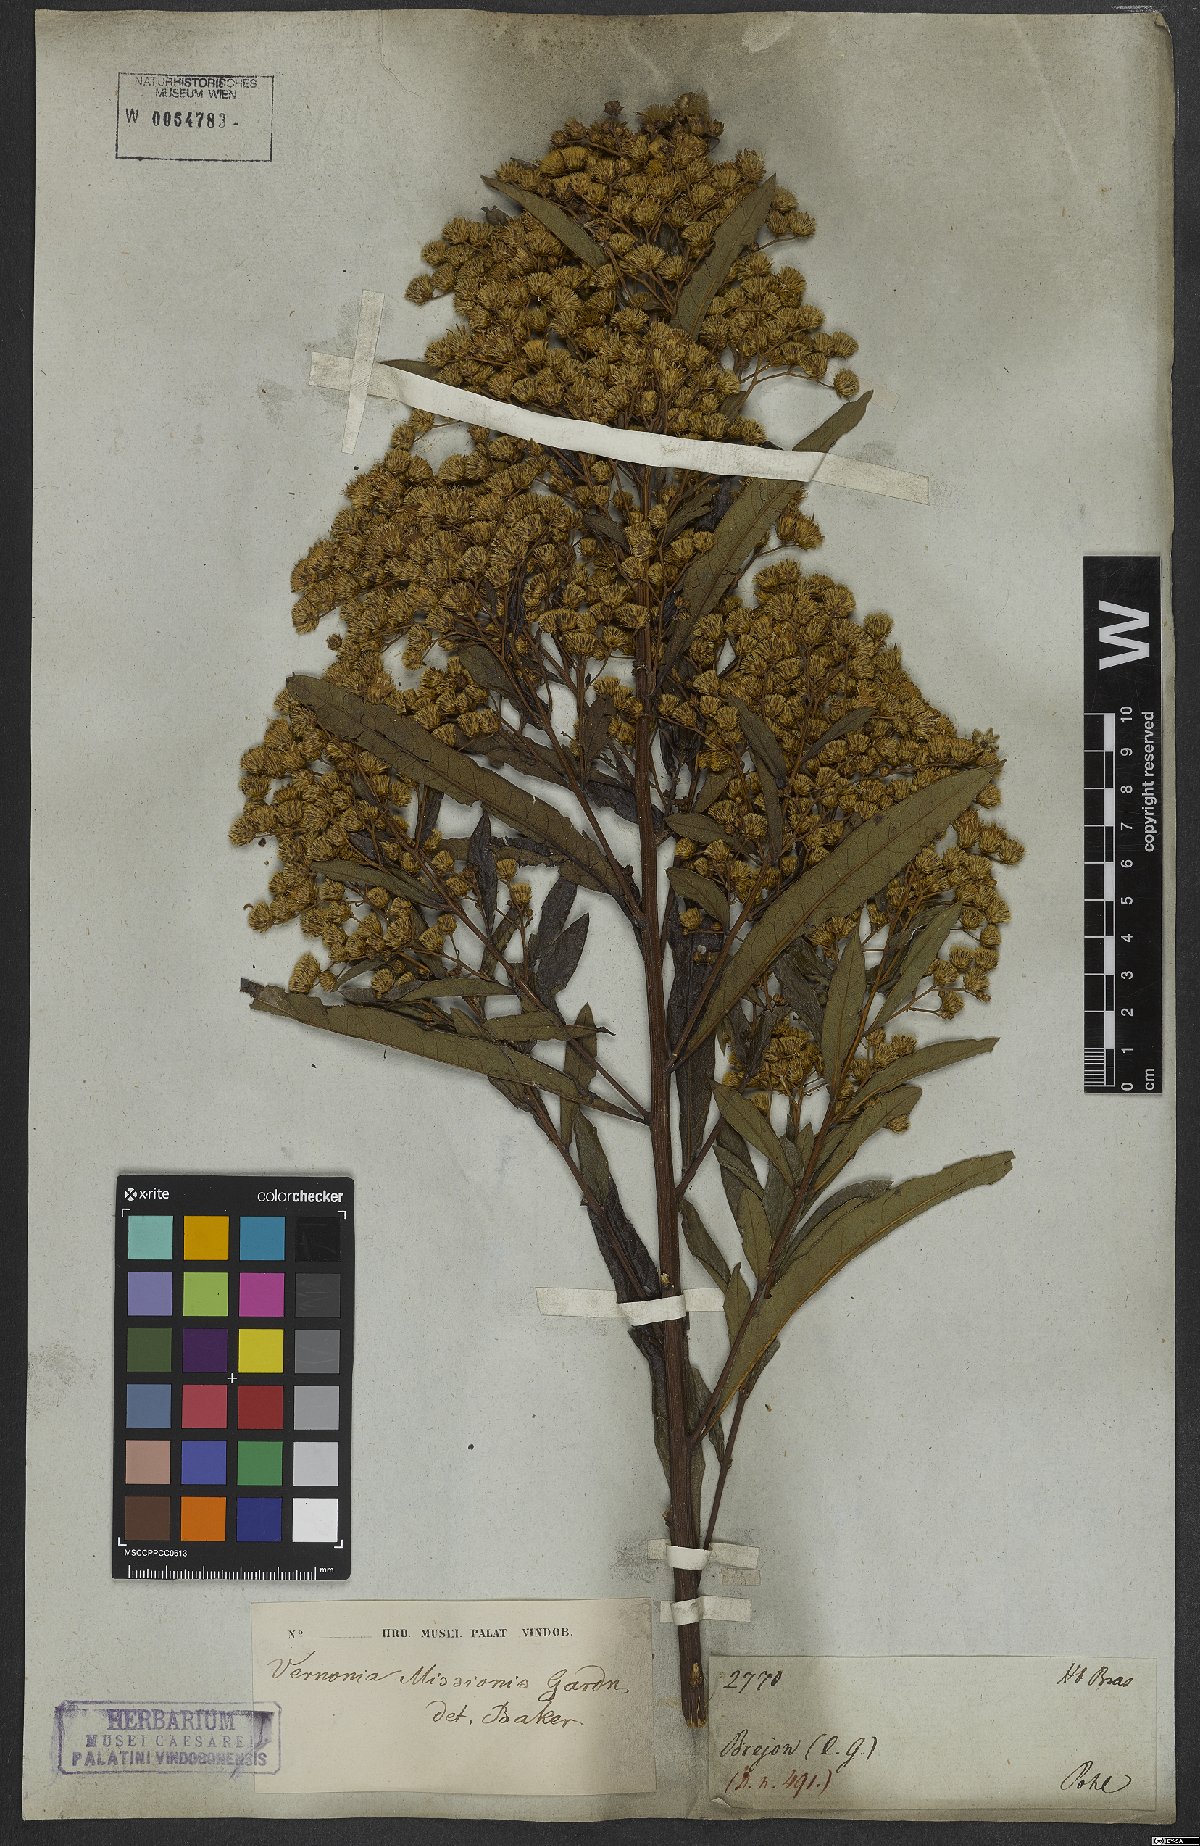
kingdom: Plantae
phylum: Tracheophyta
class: Magnoliopsida
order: Asterales
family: Asteraceae
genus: Vernonanthura
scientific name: Vernonanthura cymosa
